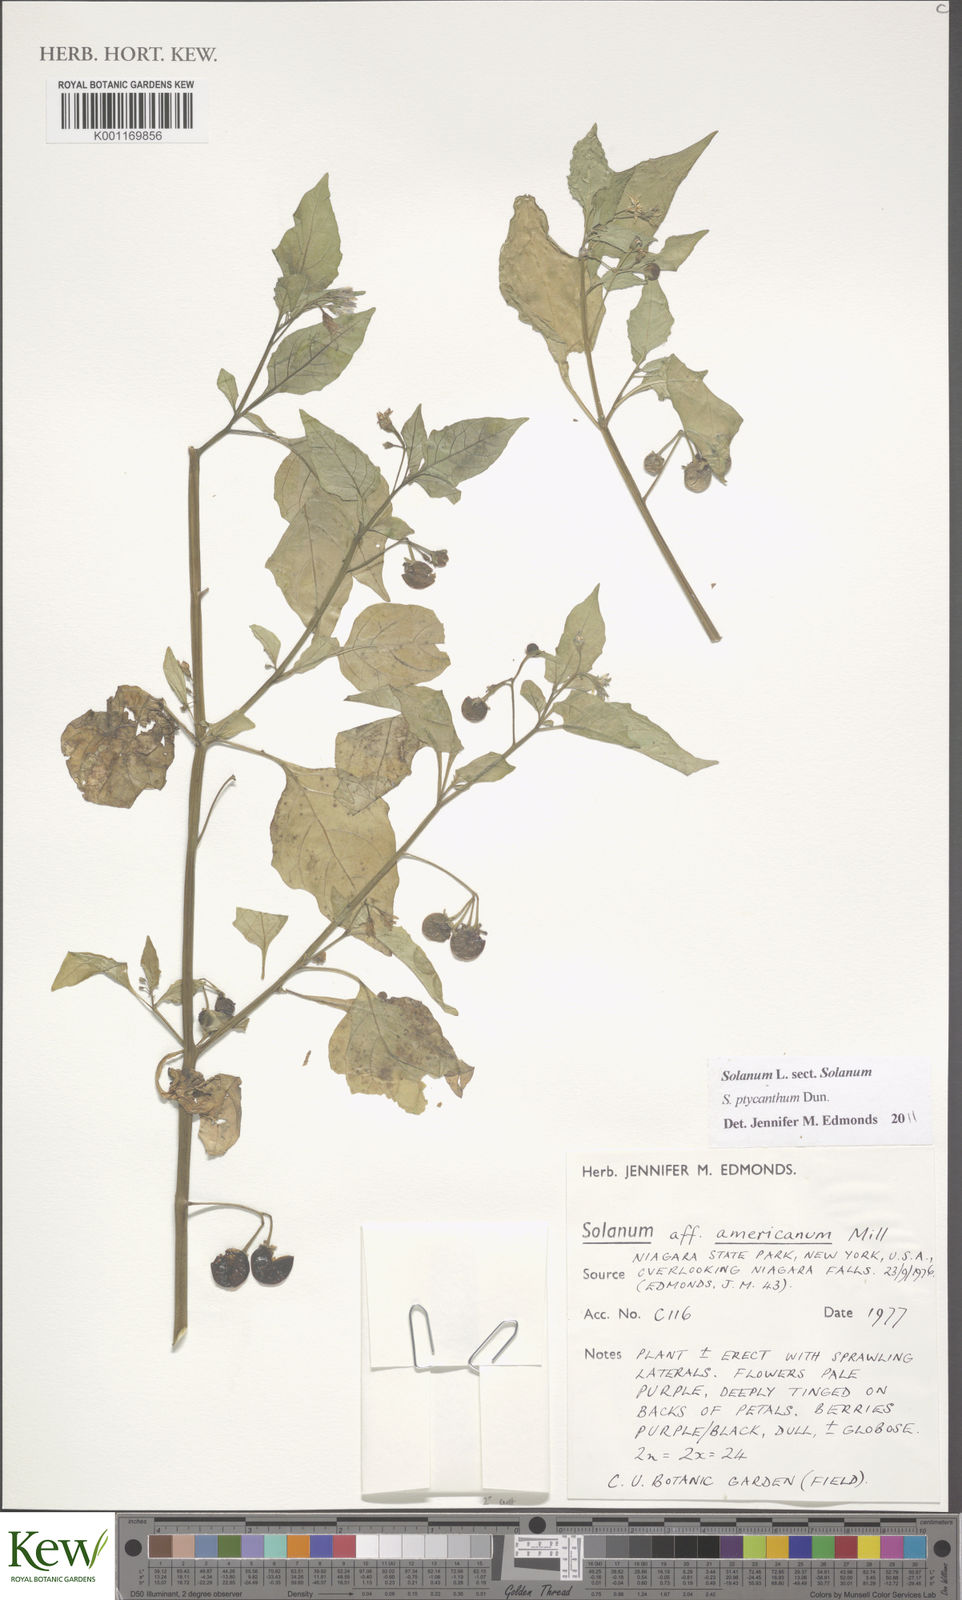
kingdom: Plantae
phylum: Tracheophyta
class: Magnoliopsida
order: Solanales
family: Solanaceae
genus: Solanum
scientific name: Solanum americanum
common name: American black nightshade
